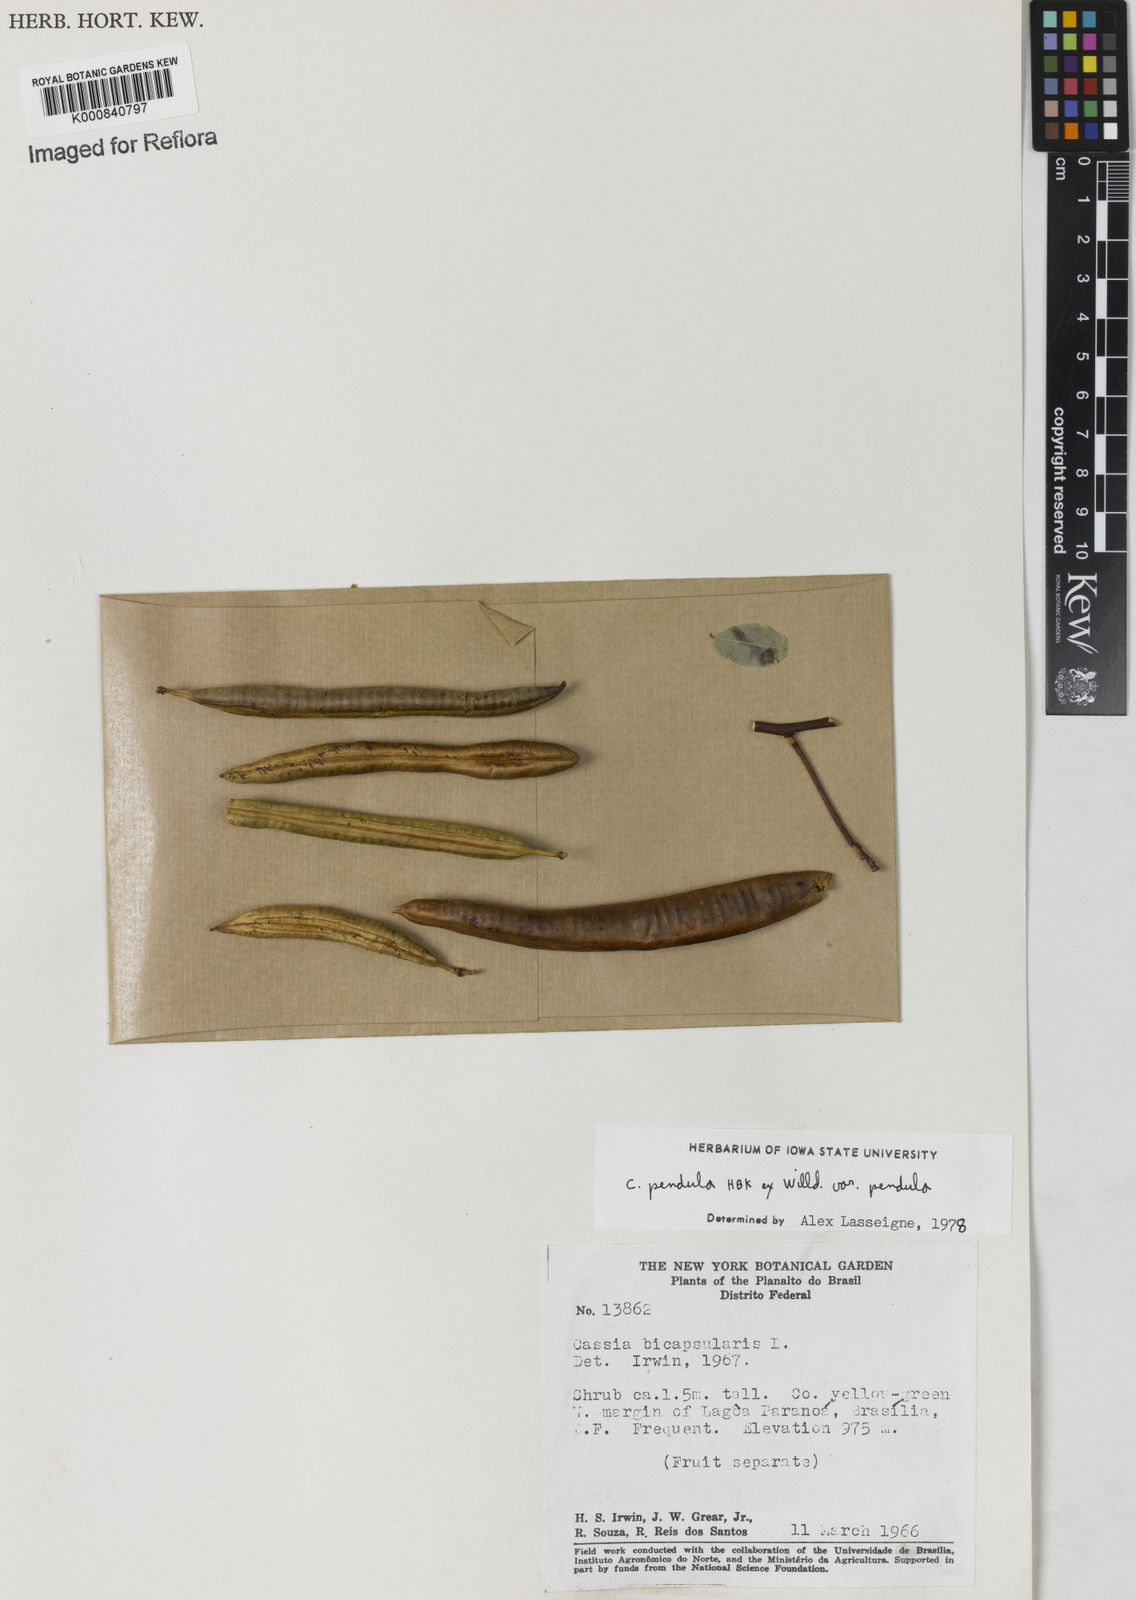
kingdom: Plantae
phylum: Tracheophyta
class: Magnoliopsida
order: Fabales
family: Fabaceae
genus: Senna
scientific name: Senna pendula
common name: Easter cassia
